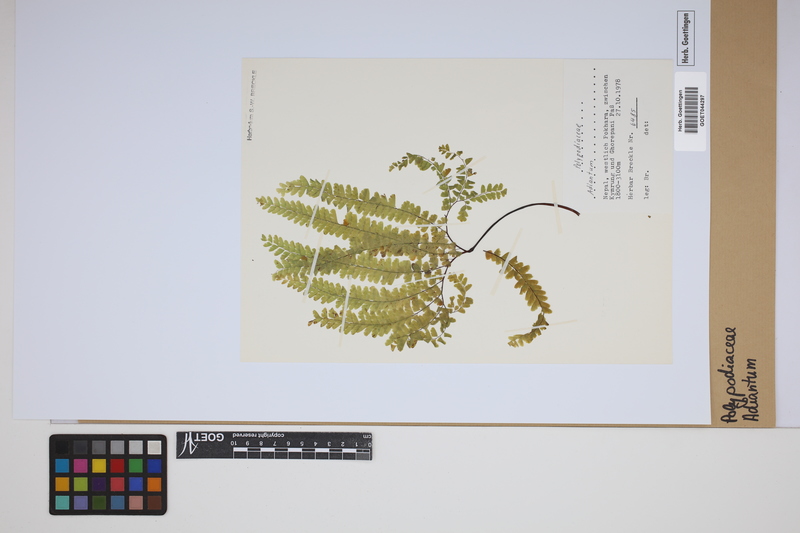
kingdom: Plantae
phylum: Tracheophyta
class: Polypodiopsida
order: Polypodiales
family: Pteridaceae
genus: Adiantum
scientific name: Adiantum
